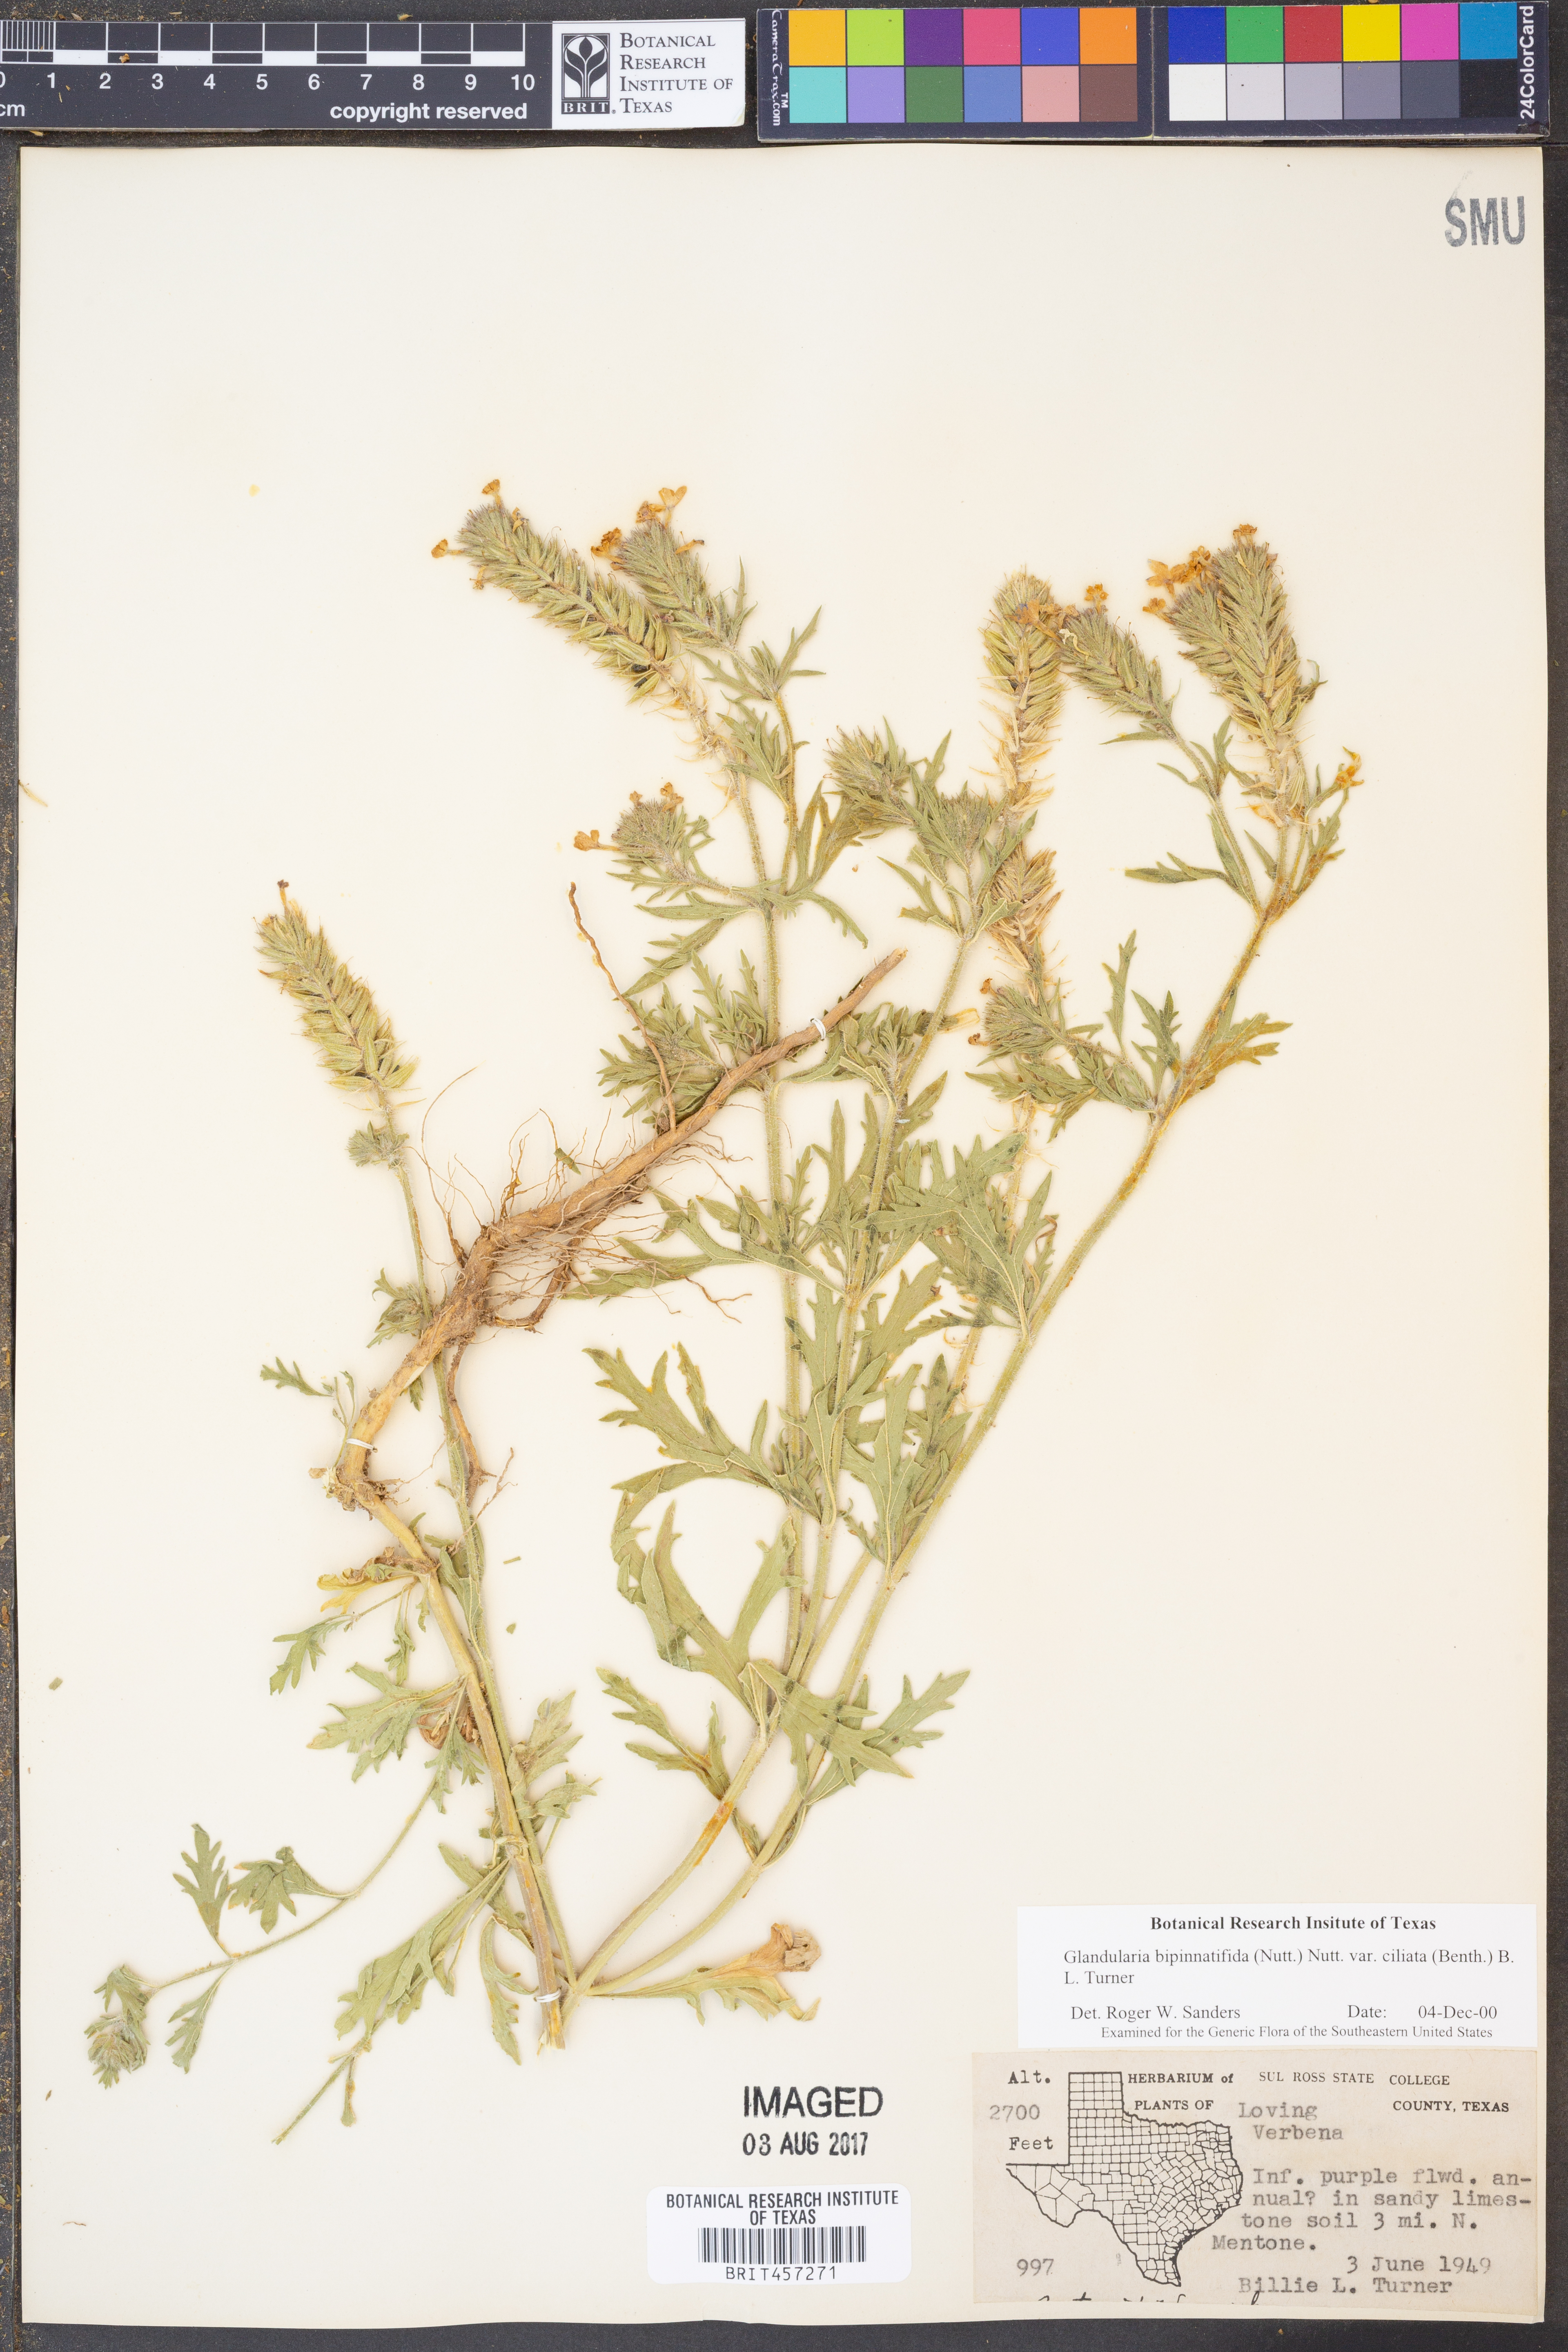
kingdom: Plantae
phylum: Tracheophyta
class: Magnoliopsida
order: Lamiales
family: Verbenaceae
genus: Verbena
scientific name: Verbena bipinnatifida
